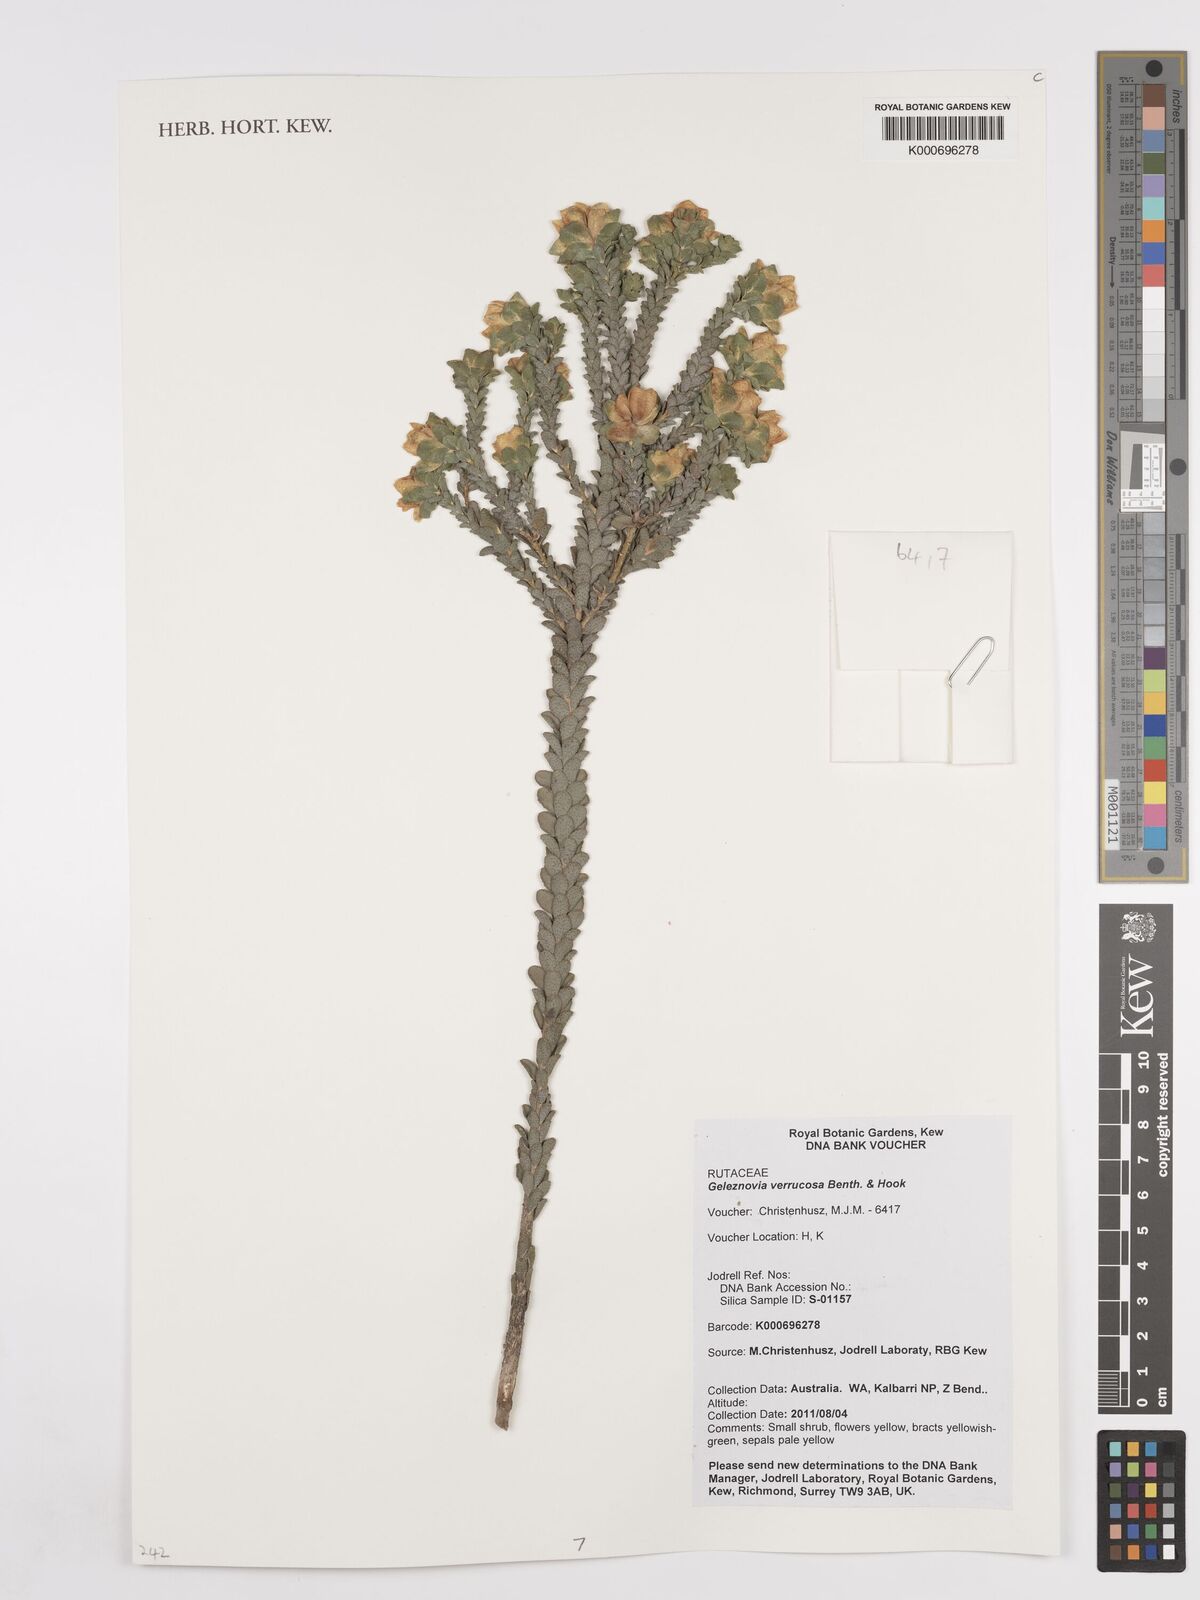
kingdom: Plantae
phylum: Tracheophyta
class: Magnoliopsida
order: Sapindales
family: Rutaceae
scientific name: Rutaceae
